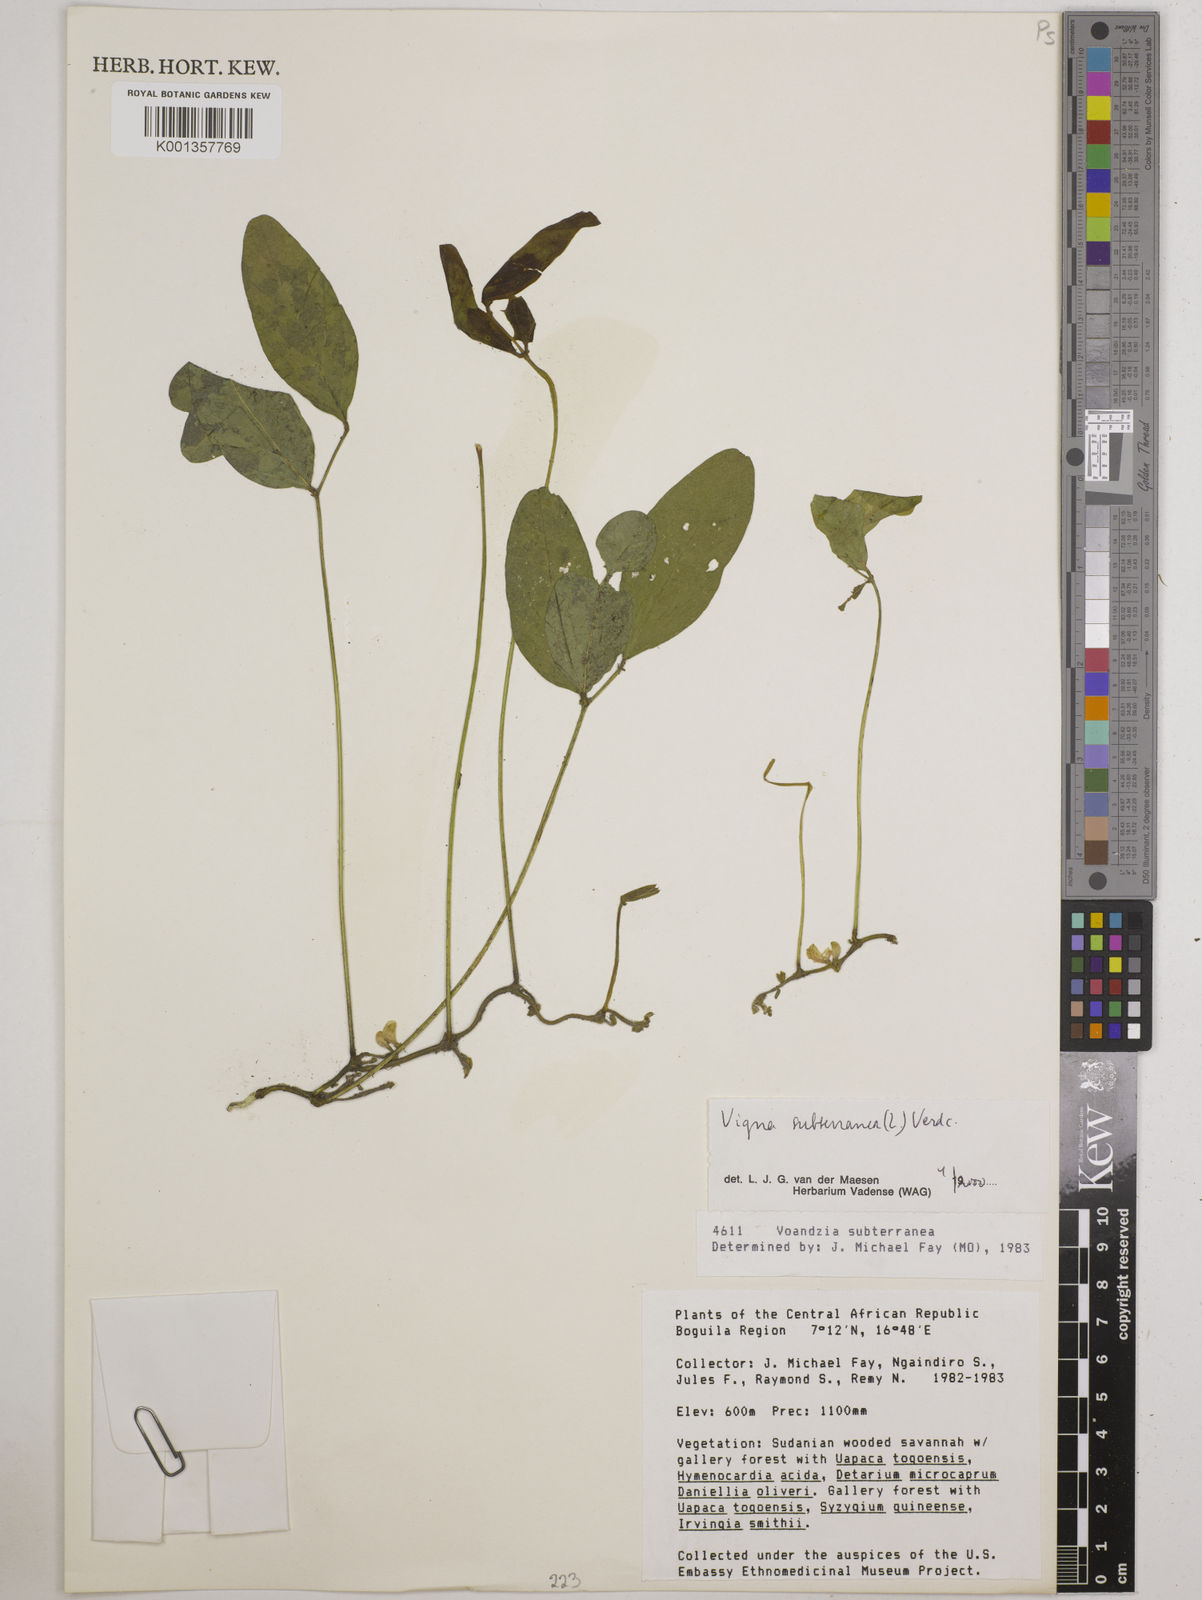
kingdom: Plantae
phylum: Tracheophyta
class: Magnoliopsida
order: Fabales
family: Fabaceae
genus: Vigna
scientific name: Vigna subterranea
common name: Bambara groundnut
